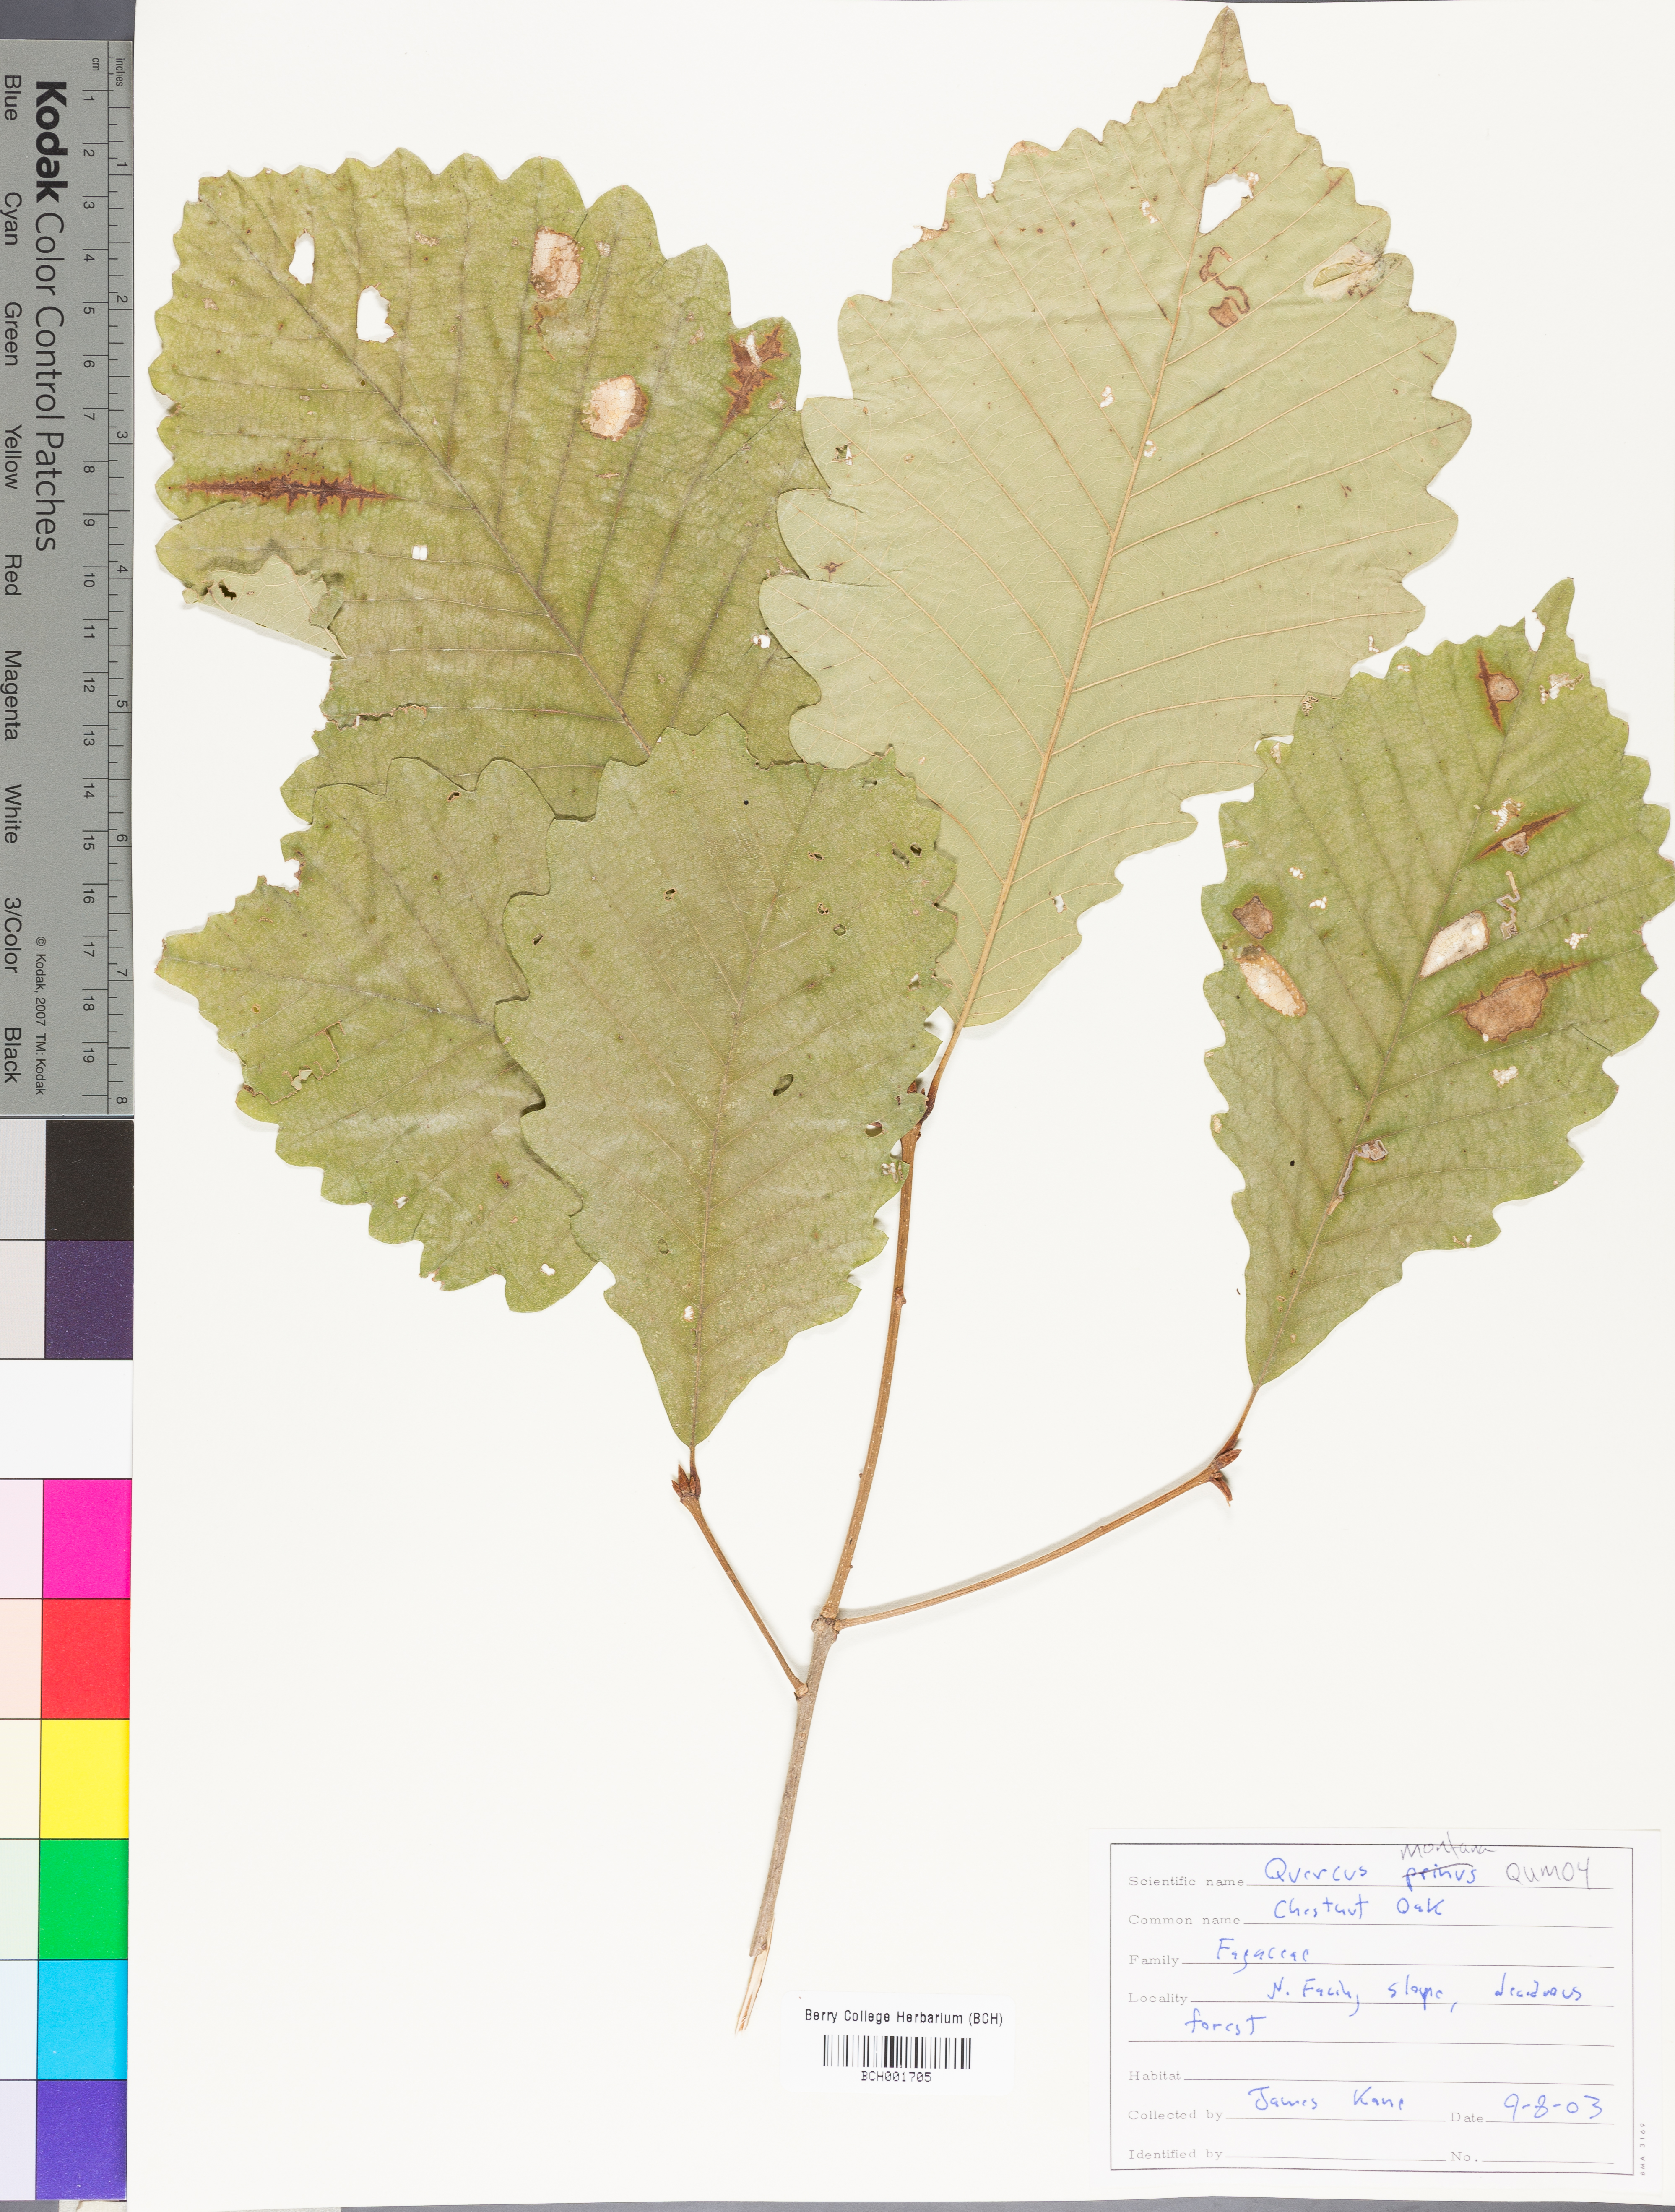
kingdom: Plantae
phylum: Tracheophyta
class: Magnoliopsida
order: Fagales
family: Fagaceae
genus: Quercus
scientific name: Quercus montana
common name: Chestnut oak
